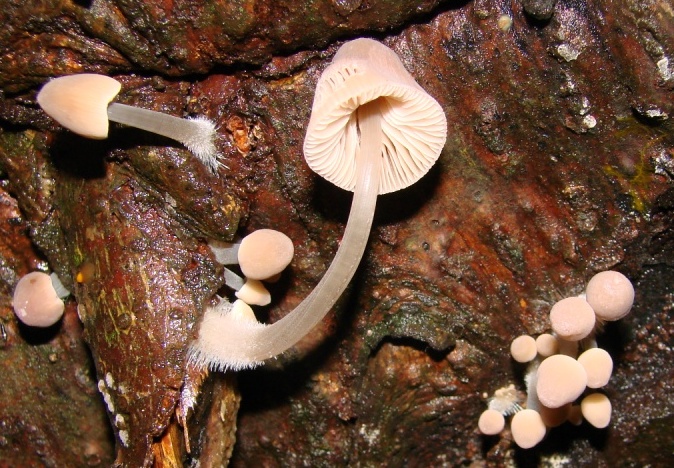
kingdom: Fungi
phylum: Basidiomycota
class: Agaricomycetes
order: Agaricales
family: Mycenaceae
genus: Mycena
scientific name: Mycena metata
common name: rødlig huesvamp
